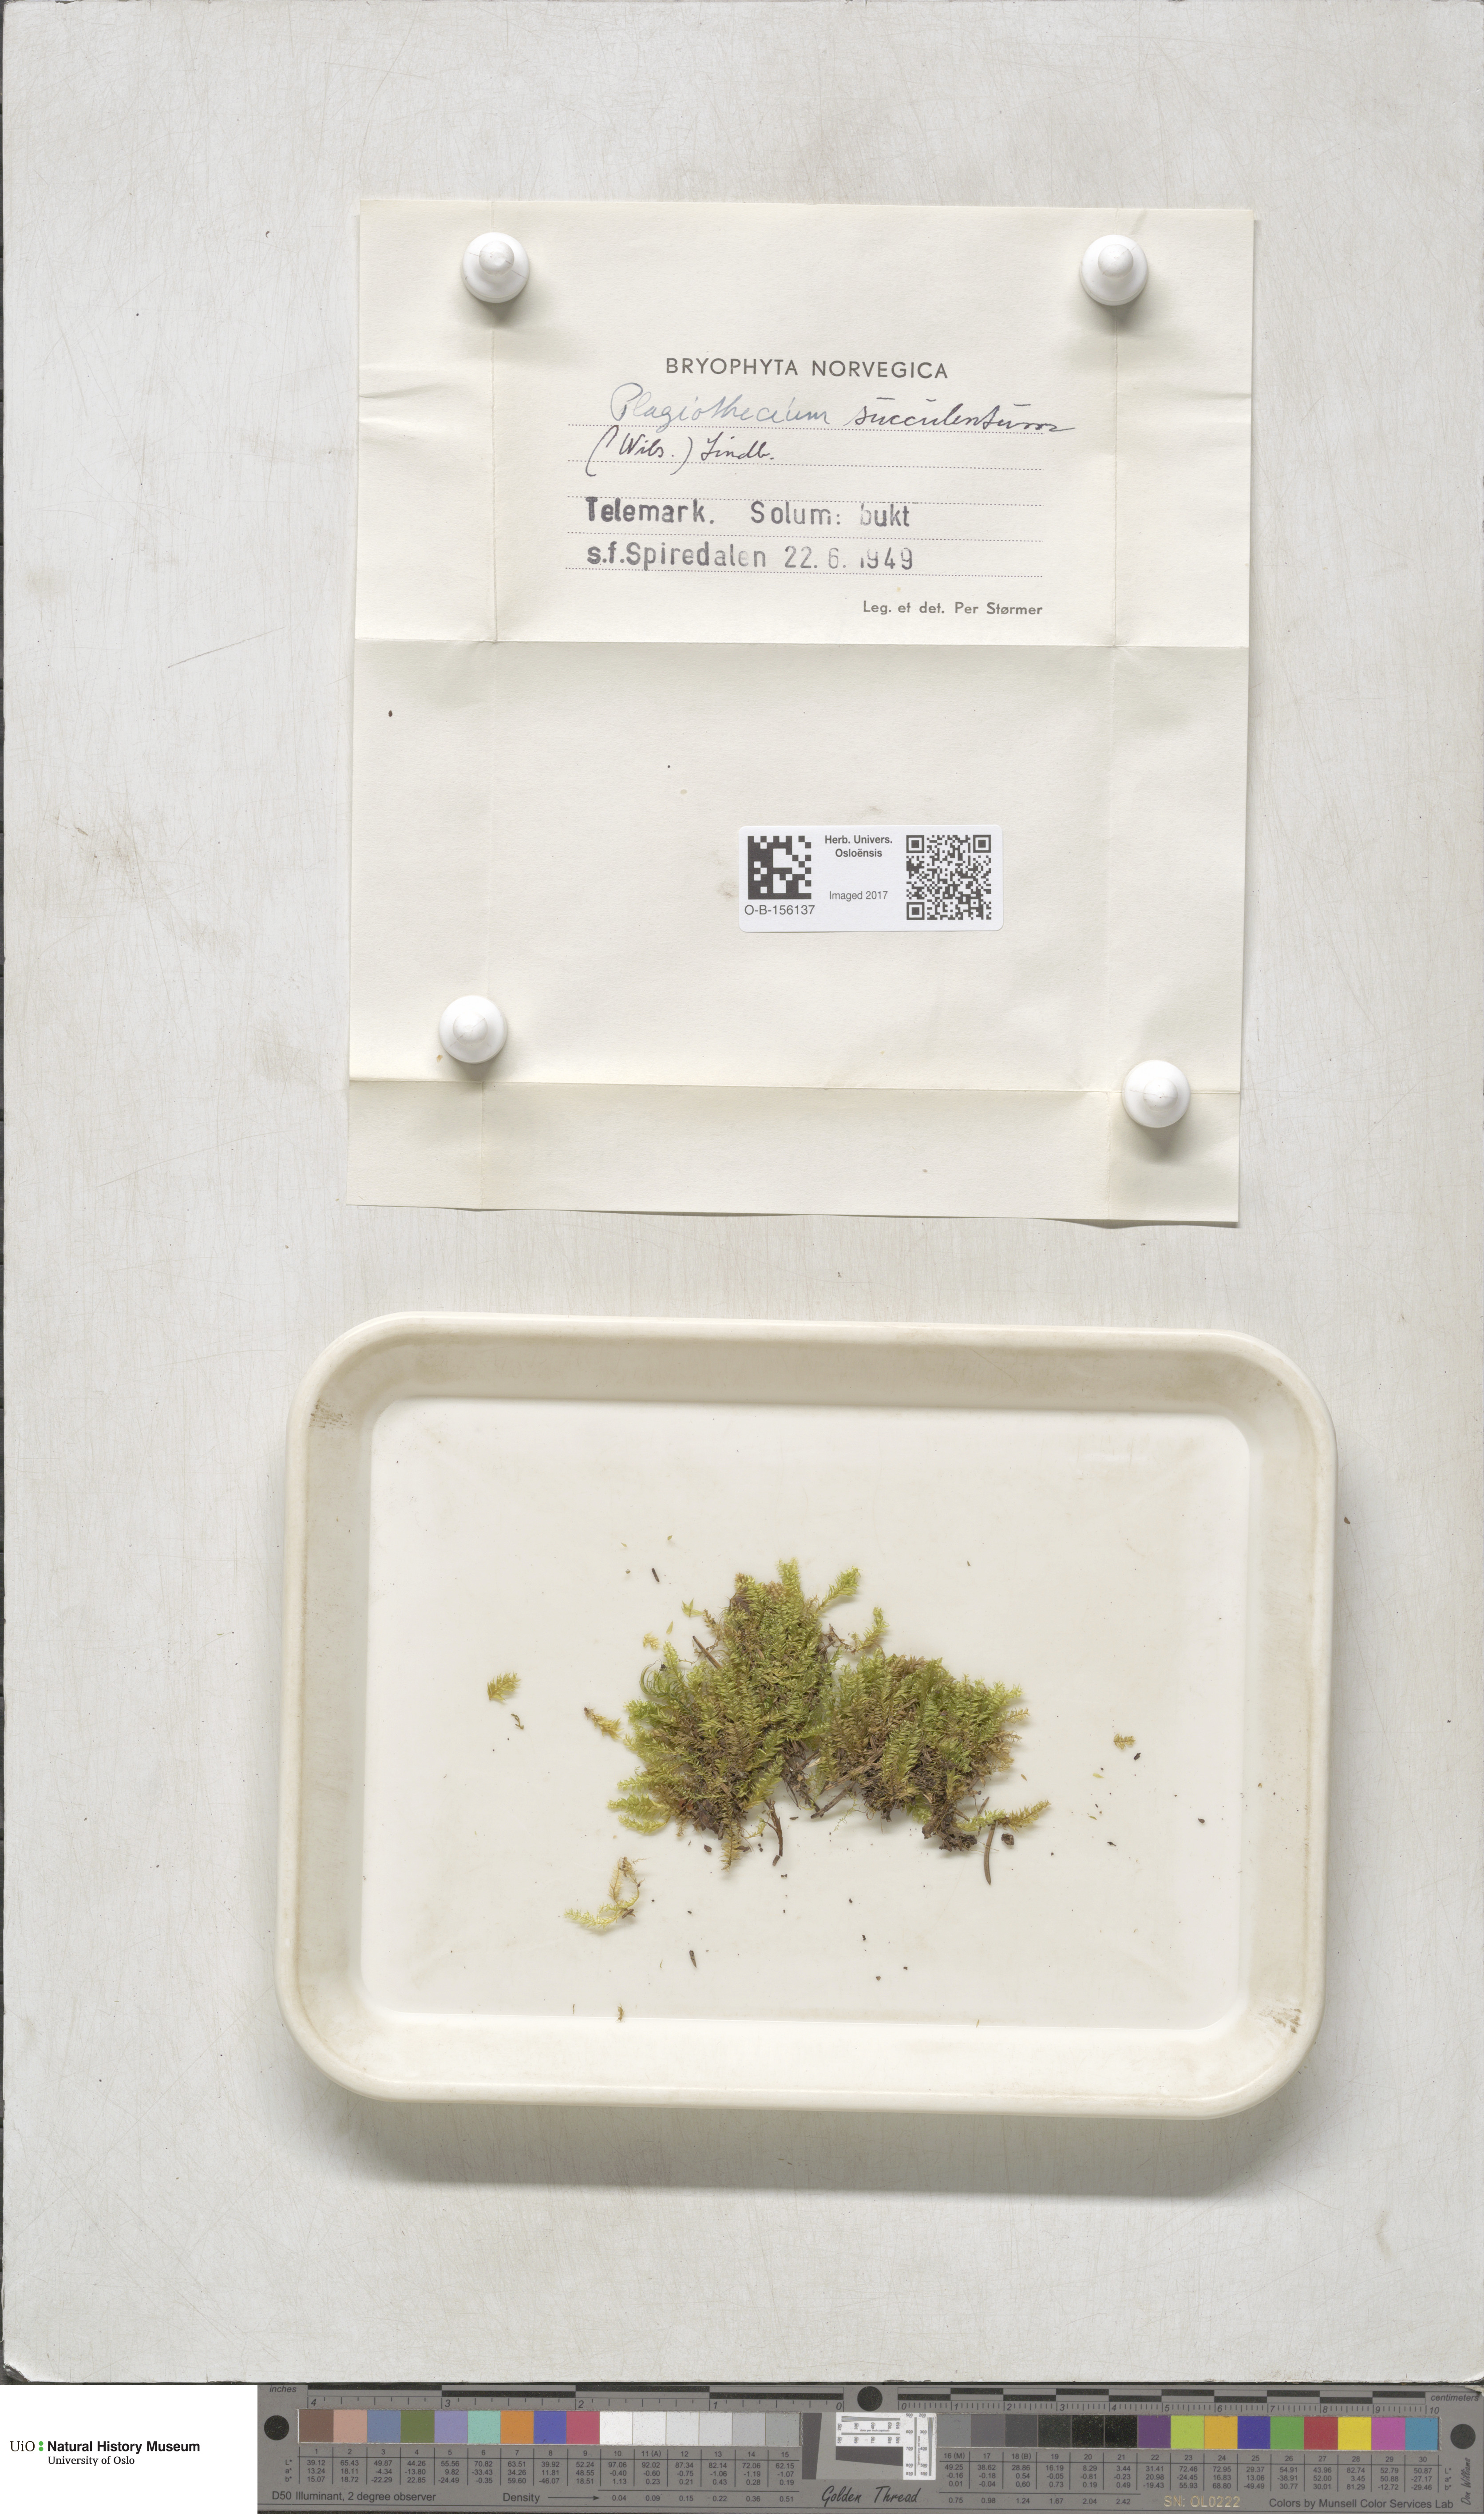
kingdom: Plantae
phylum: Bryophyta
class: Bryopsida
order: Hypnales
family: Plagiotheciaceae
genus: Plagiothecium
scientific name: Plagiothecium nemorale
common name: Woodsy silk-moss
